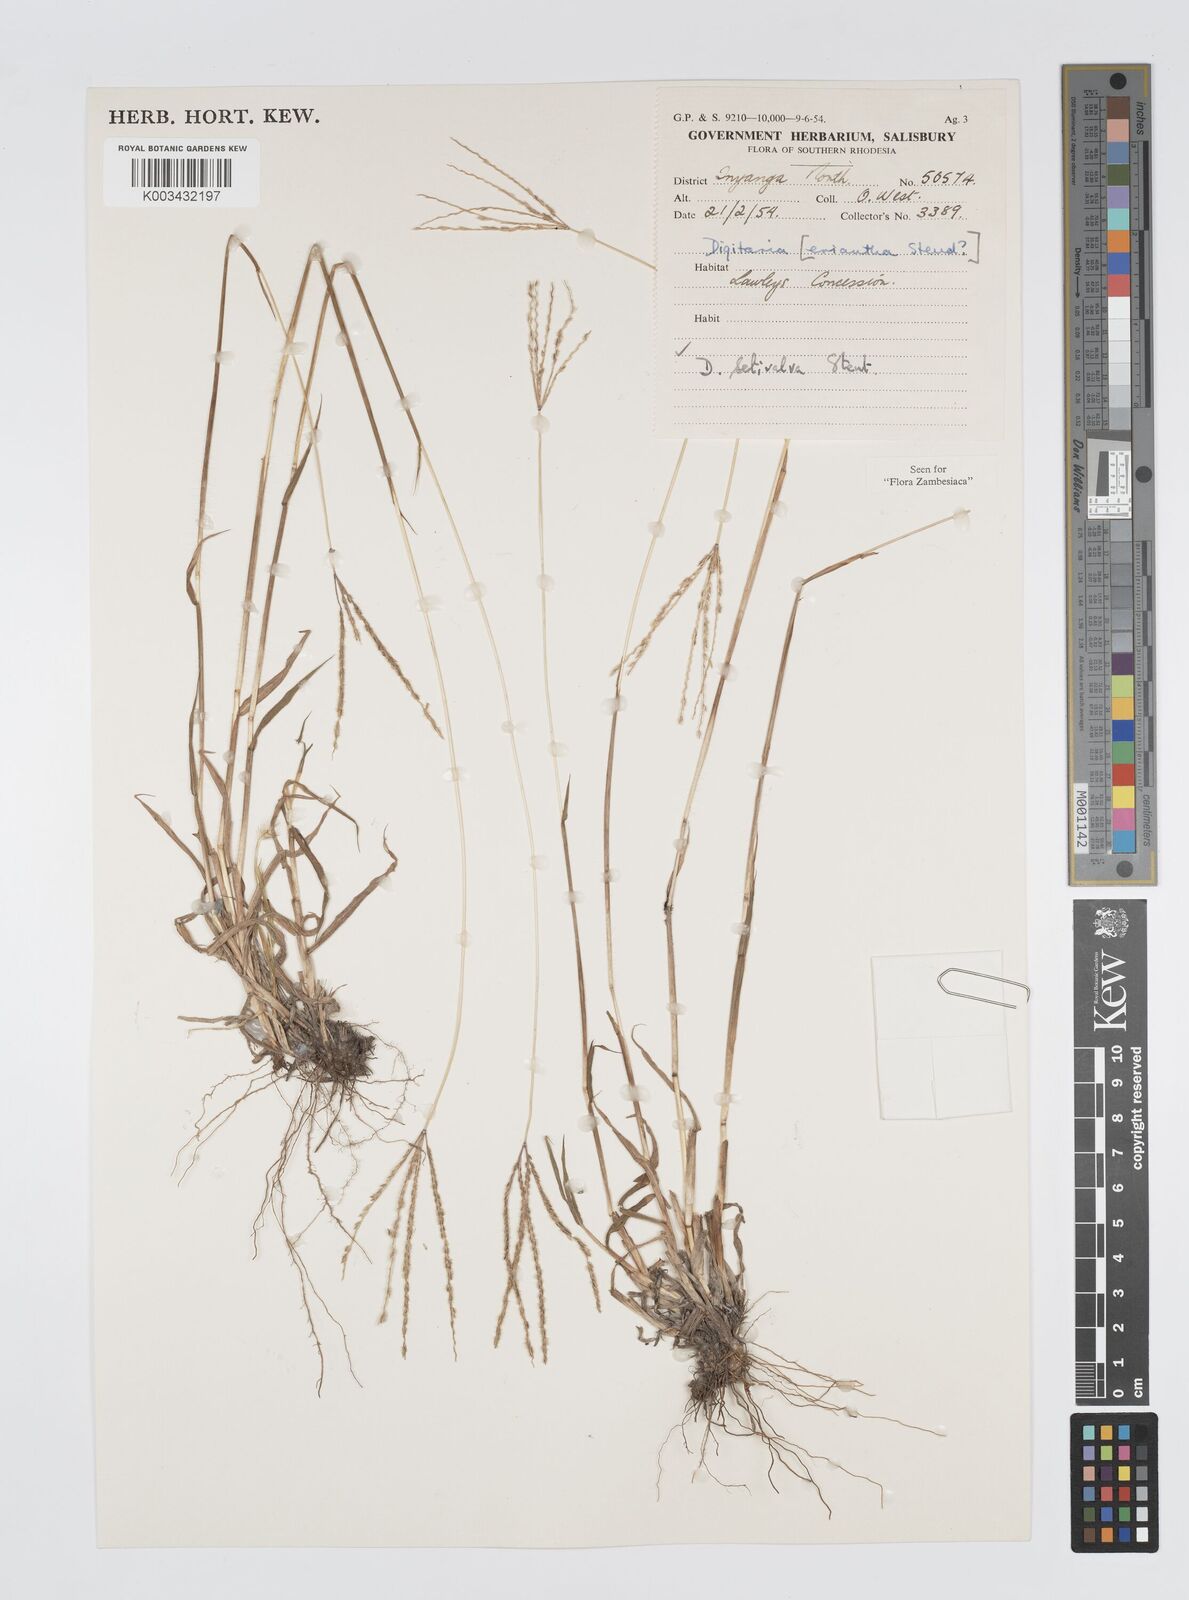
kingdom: Plantae
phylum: Tracheophyta
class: Liliopsida
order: Poales
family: Poaceae
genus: Digitaria
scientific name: Digitaria milanjiana
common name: Madagascar crabgrass
